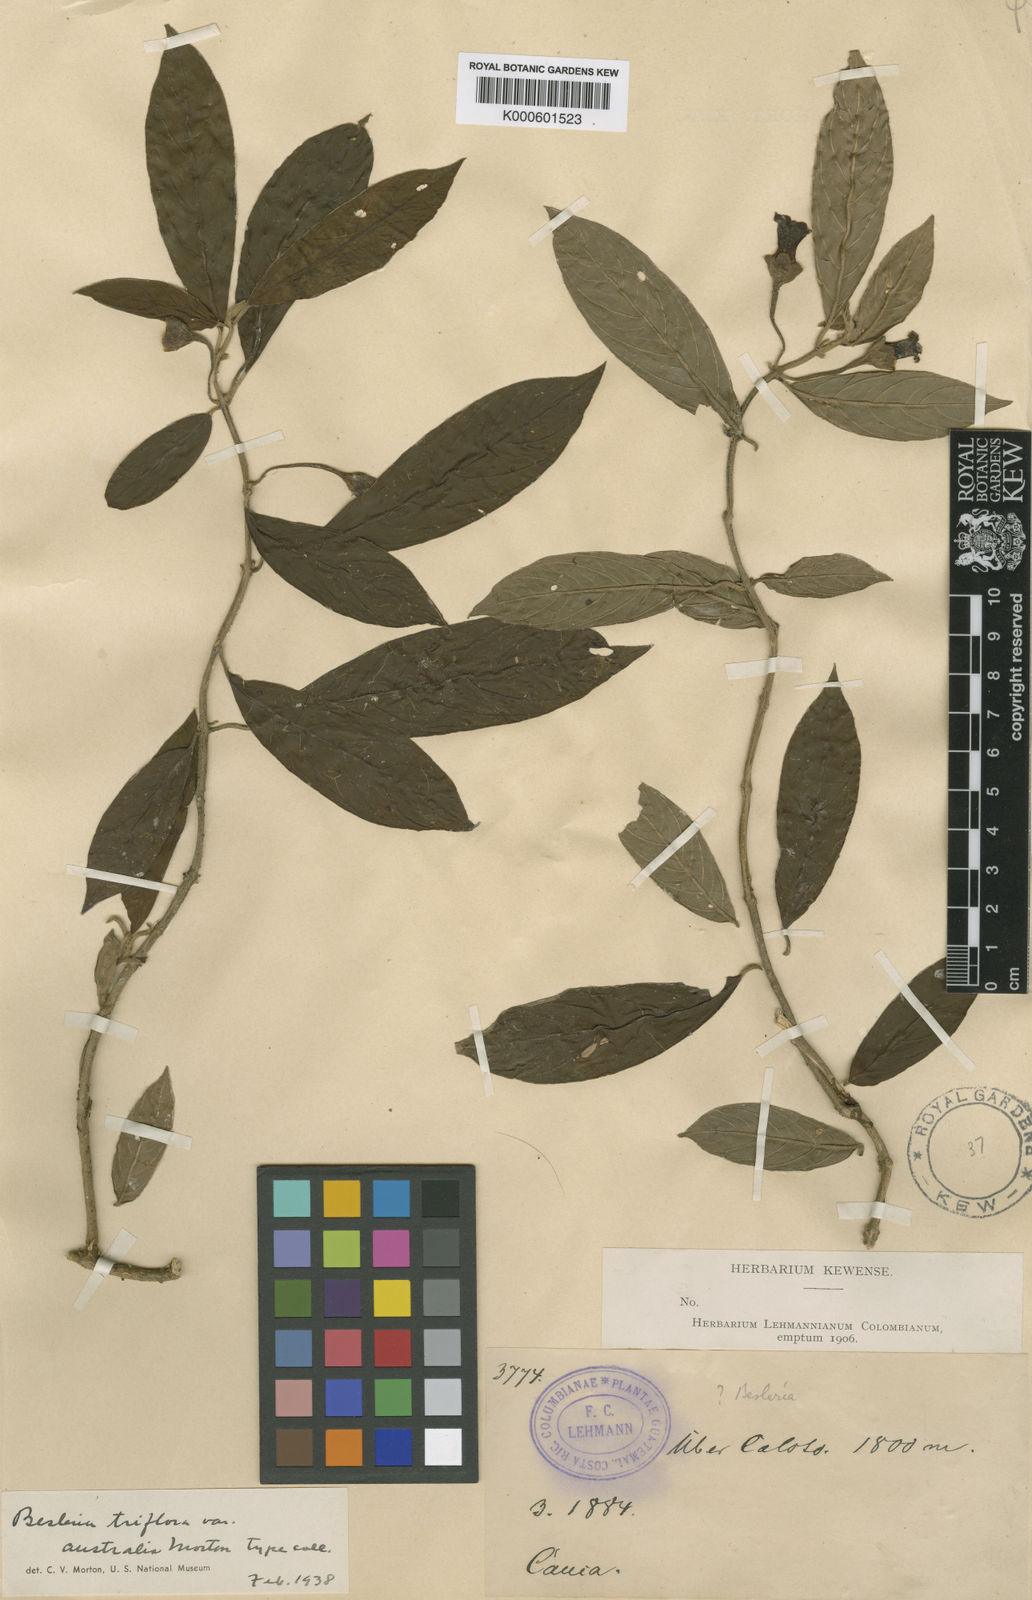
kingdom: Plantae
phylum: Tracheophyta
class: Magnoliopsida
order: Lamiales
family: Gesneriaceae
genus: Besleria
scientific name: Besleria triflora
